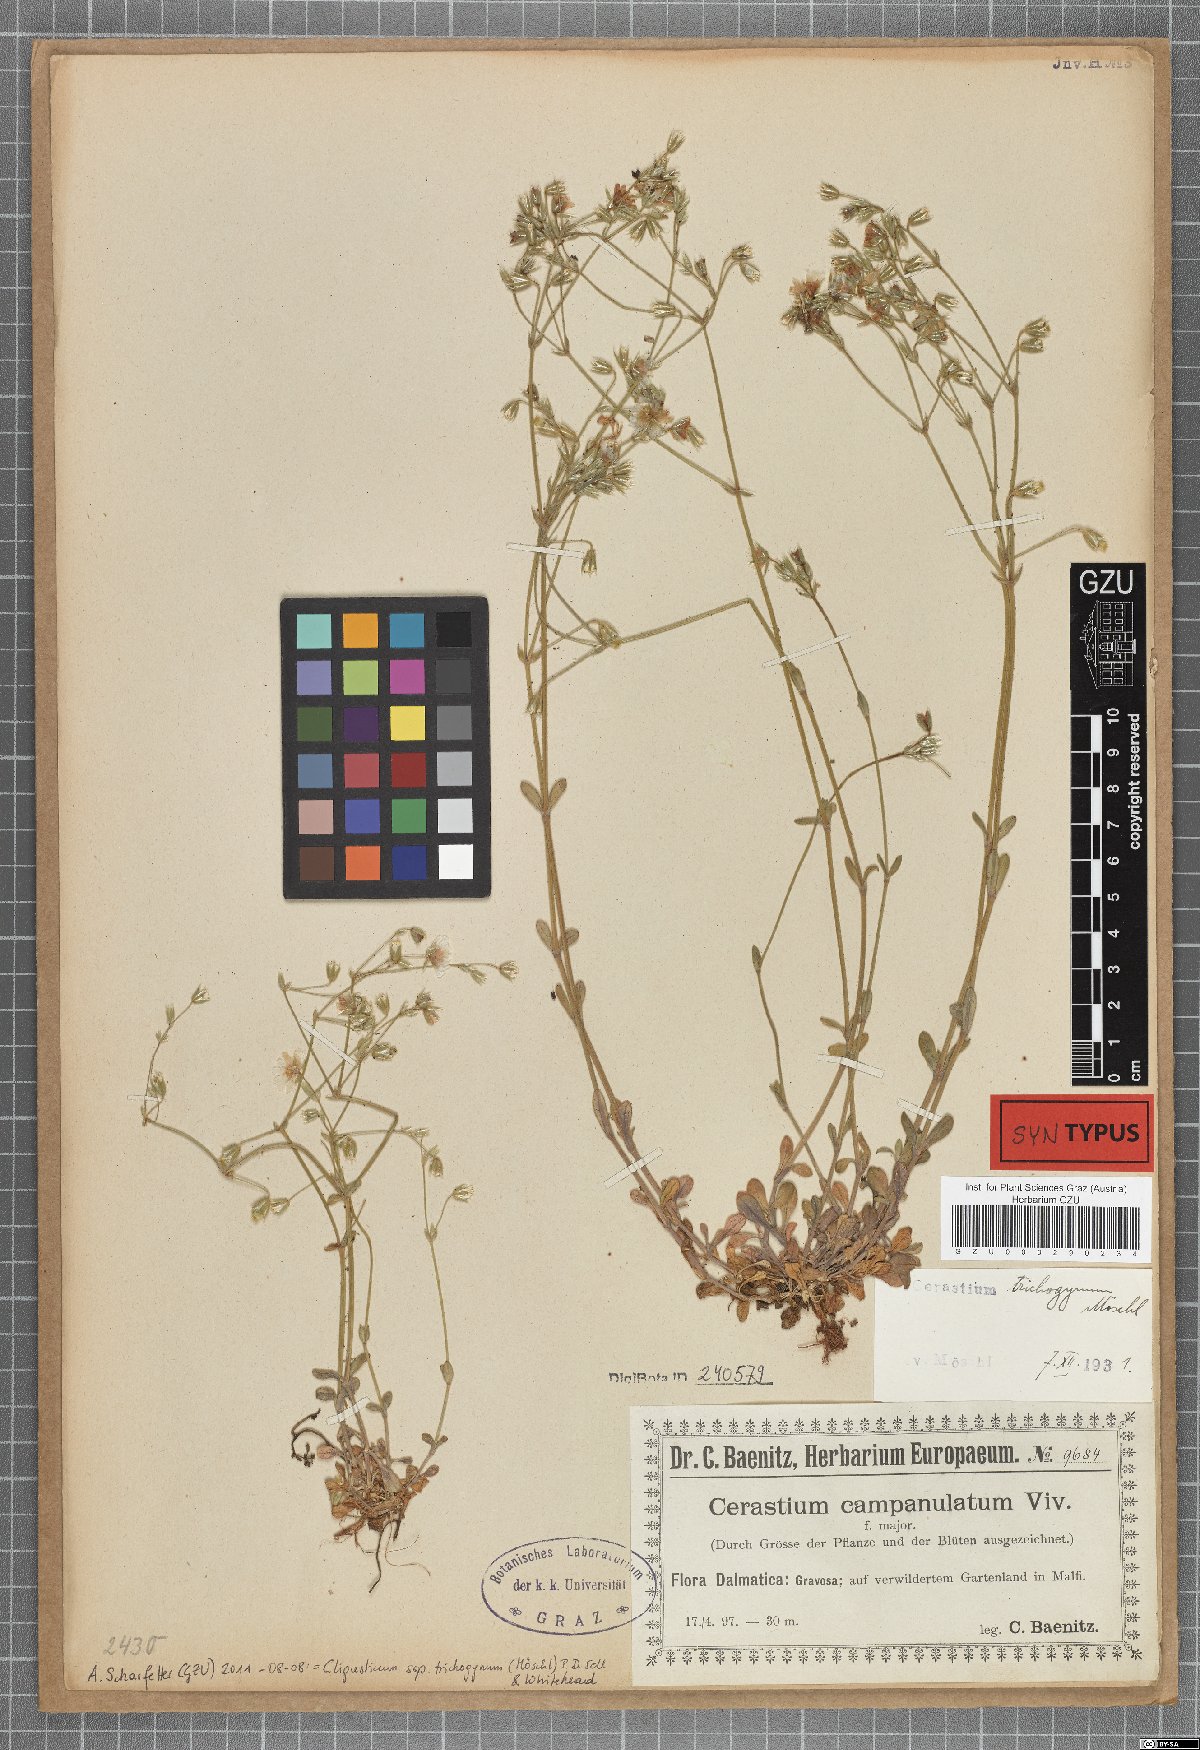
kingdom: Plantae
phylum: Tracheophyta
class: Magnoliopsida
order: Caryophyllales
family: Caryophyllaceae
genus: Cerastium
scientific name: Cerastium ligusticum
